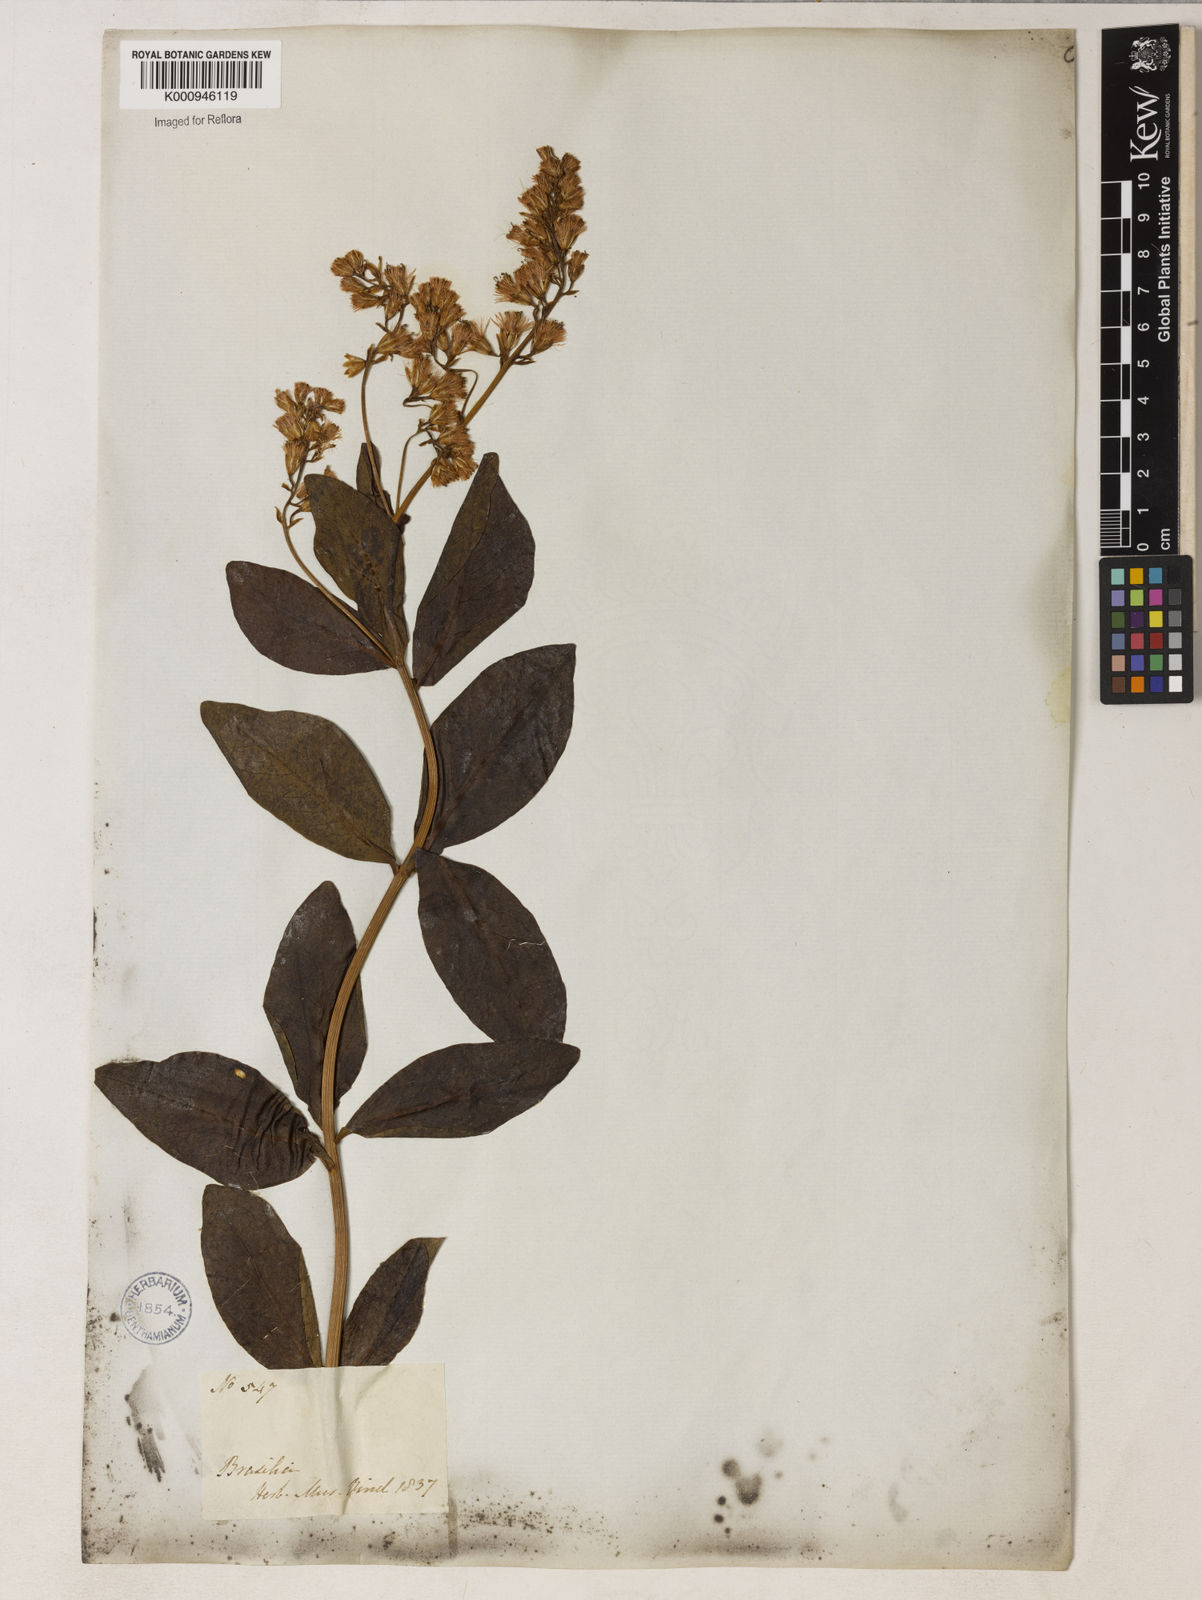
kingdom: Plantae
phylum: Tracheophyta
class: Magnoliopsida
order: Asterales
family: Asteraceae
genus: Mikania
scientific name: Mikania oblongifolia
